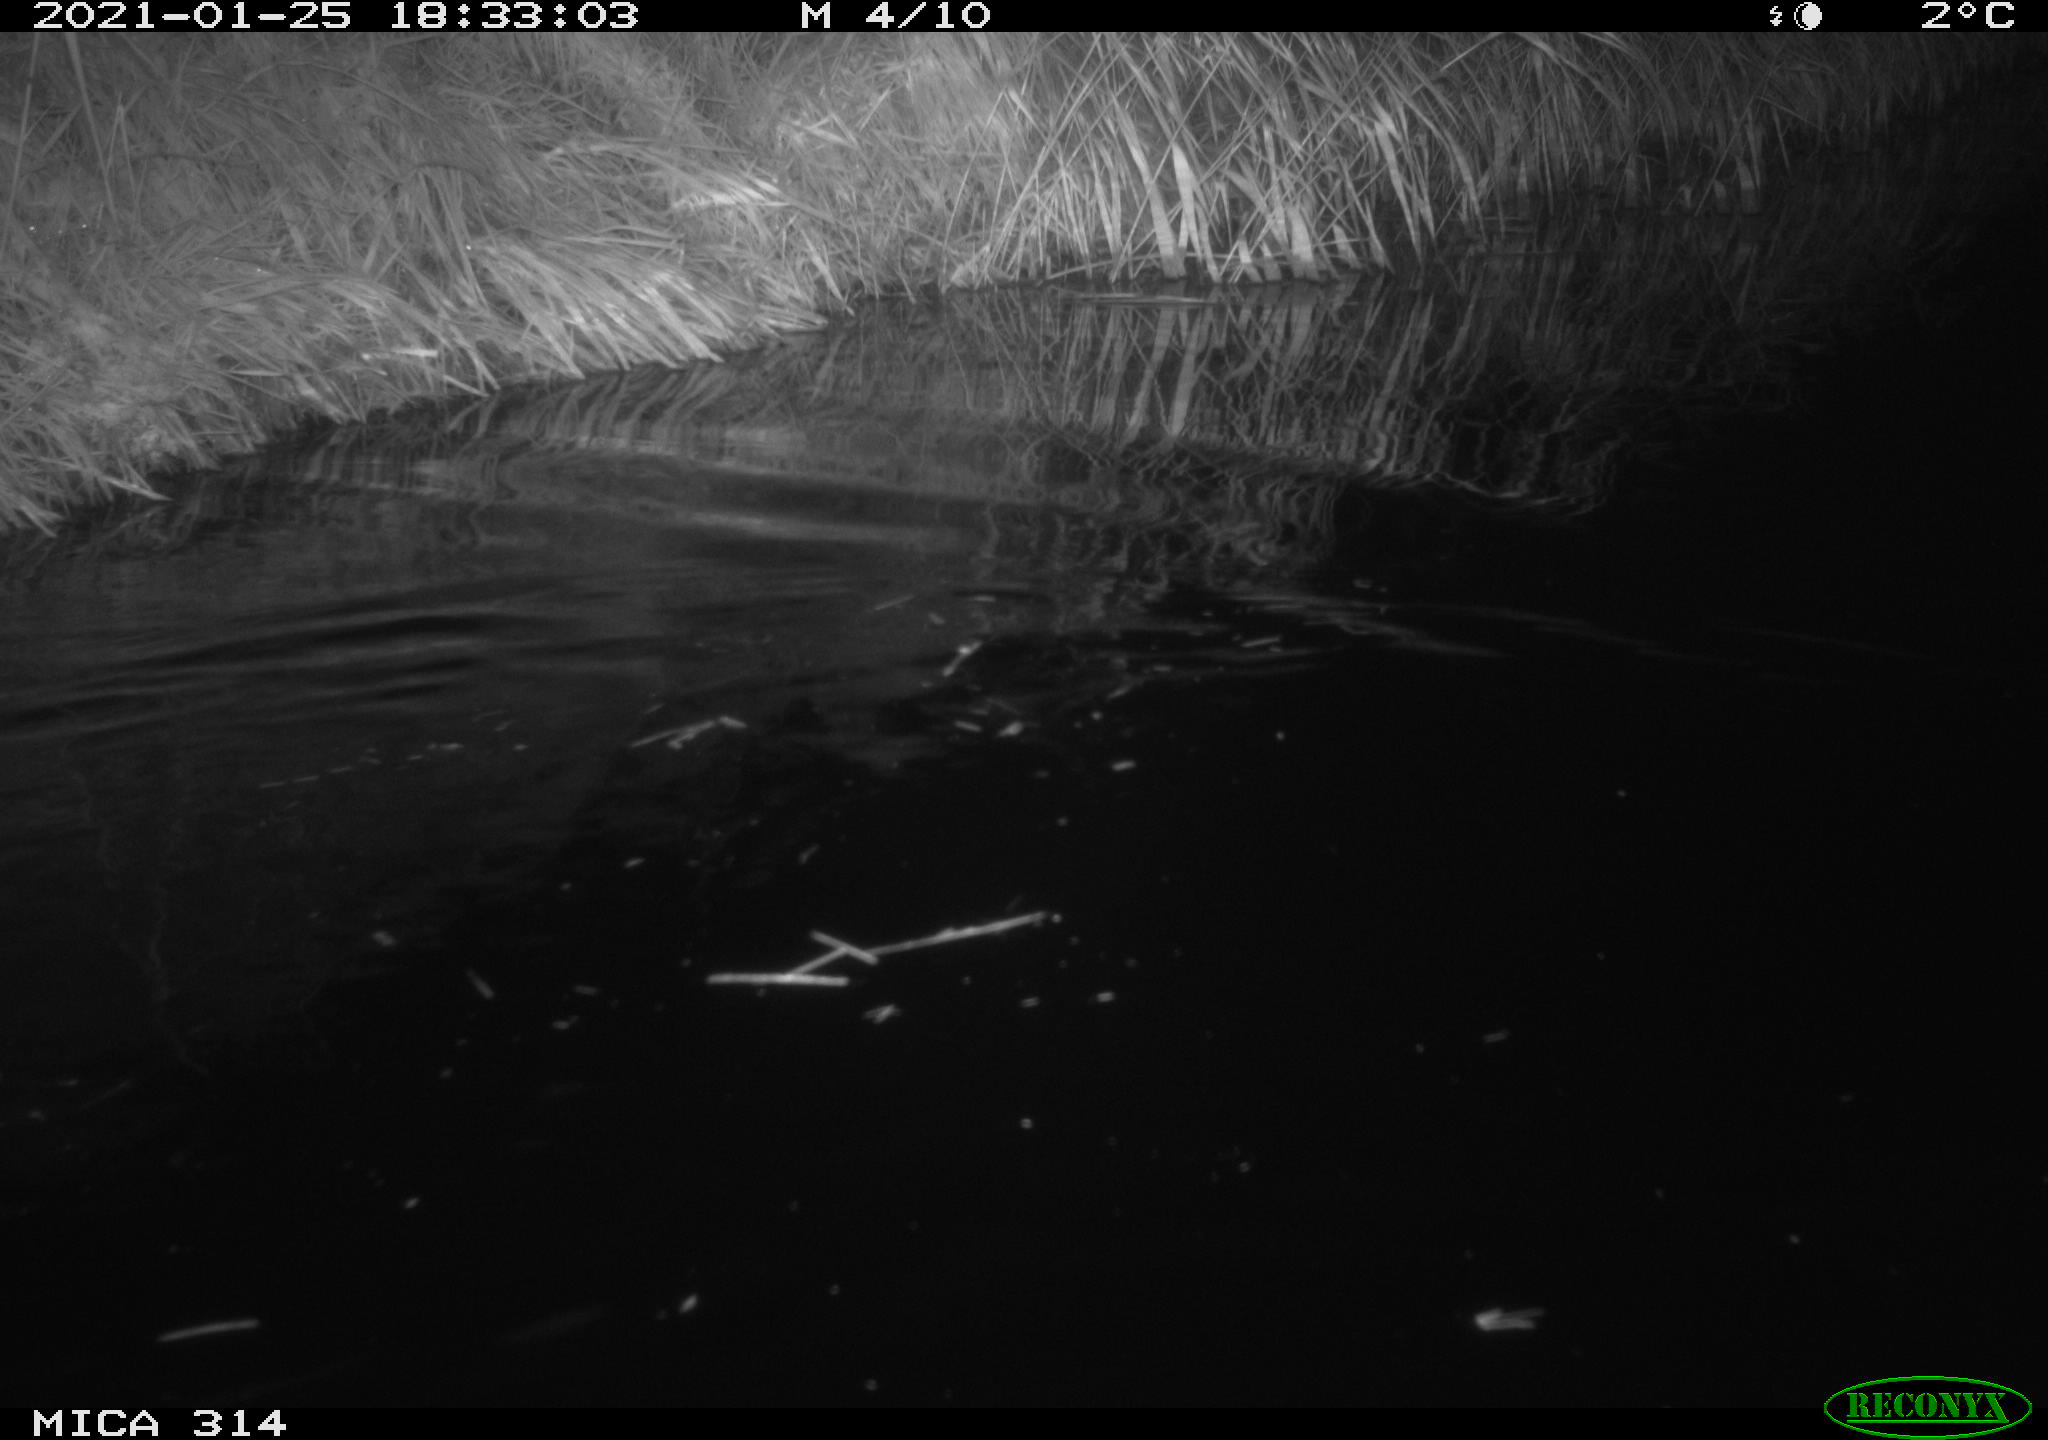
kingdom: Animalia
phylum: Chordata
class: Mammalia
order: Rodentia
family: Muridae
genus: Rattus
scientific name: Rattus norvegicus
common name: Brown rat
